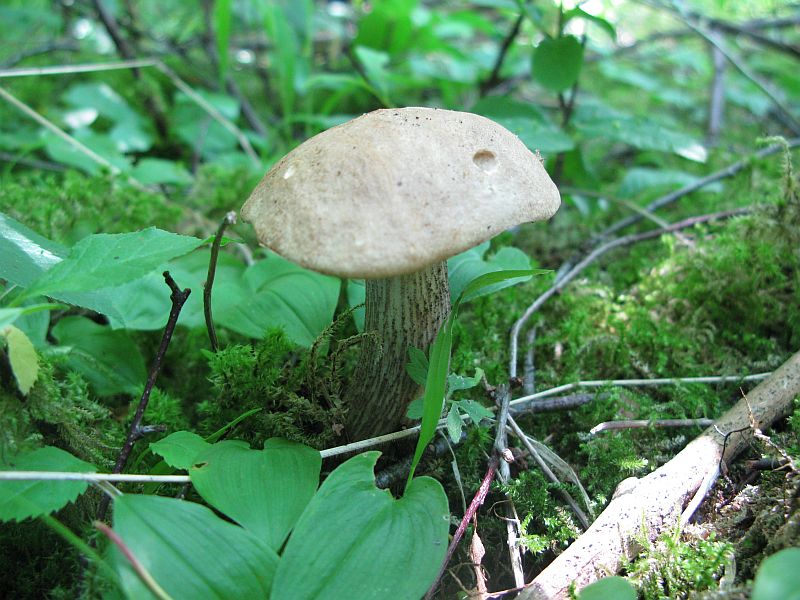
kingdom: Fungi
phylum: Basidiomycota
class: Agaricomycetes
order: Boletales
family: Boletaceae
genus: Leccinum
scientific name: Leccinum scabrum
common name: brun skælrørhat
